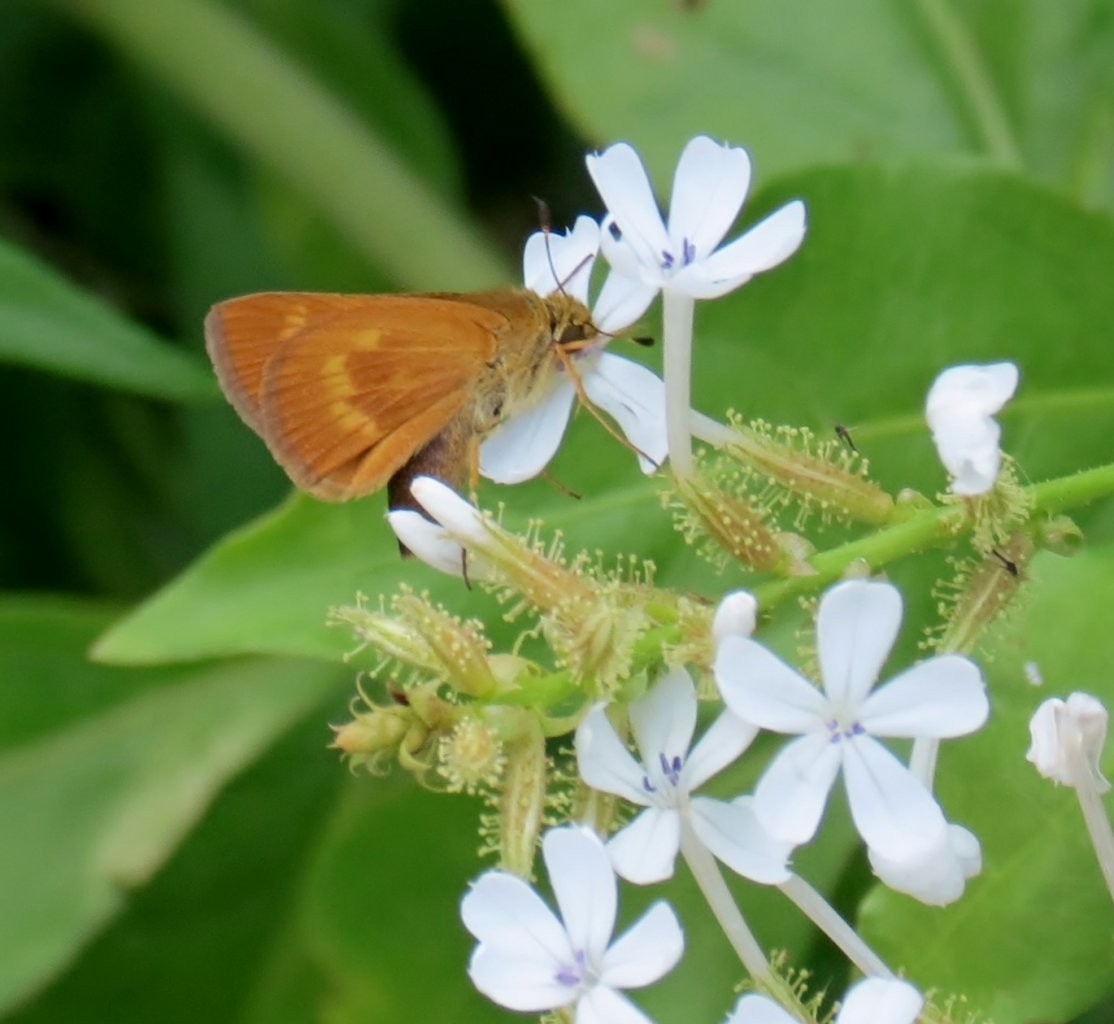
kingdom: Animalia
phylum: Arthropoda
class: Insecta
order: Lepidoptera
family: Hesperiidae
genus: Mellana
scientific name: Mellana eulogius
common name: Common Mellana
